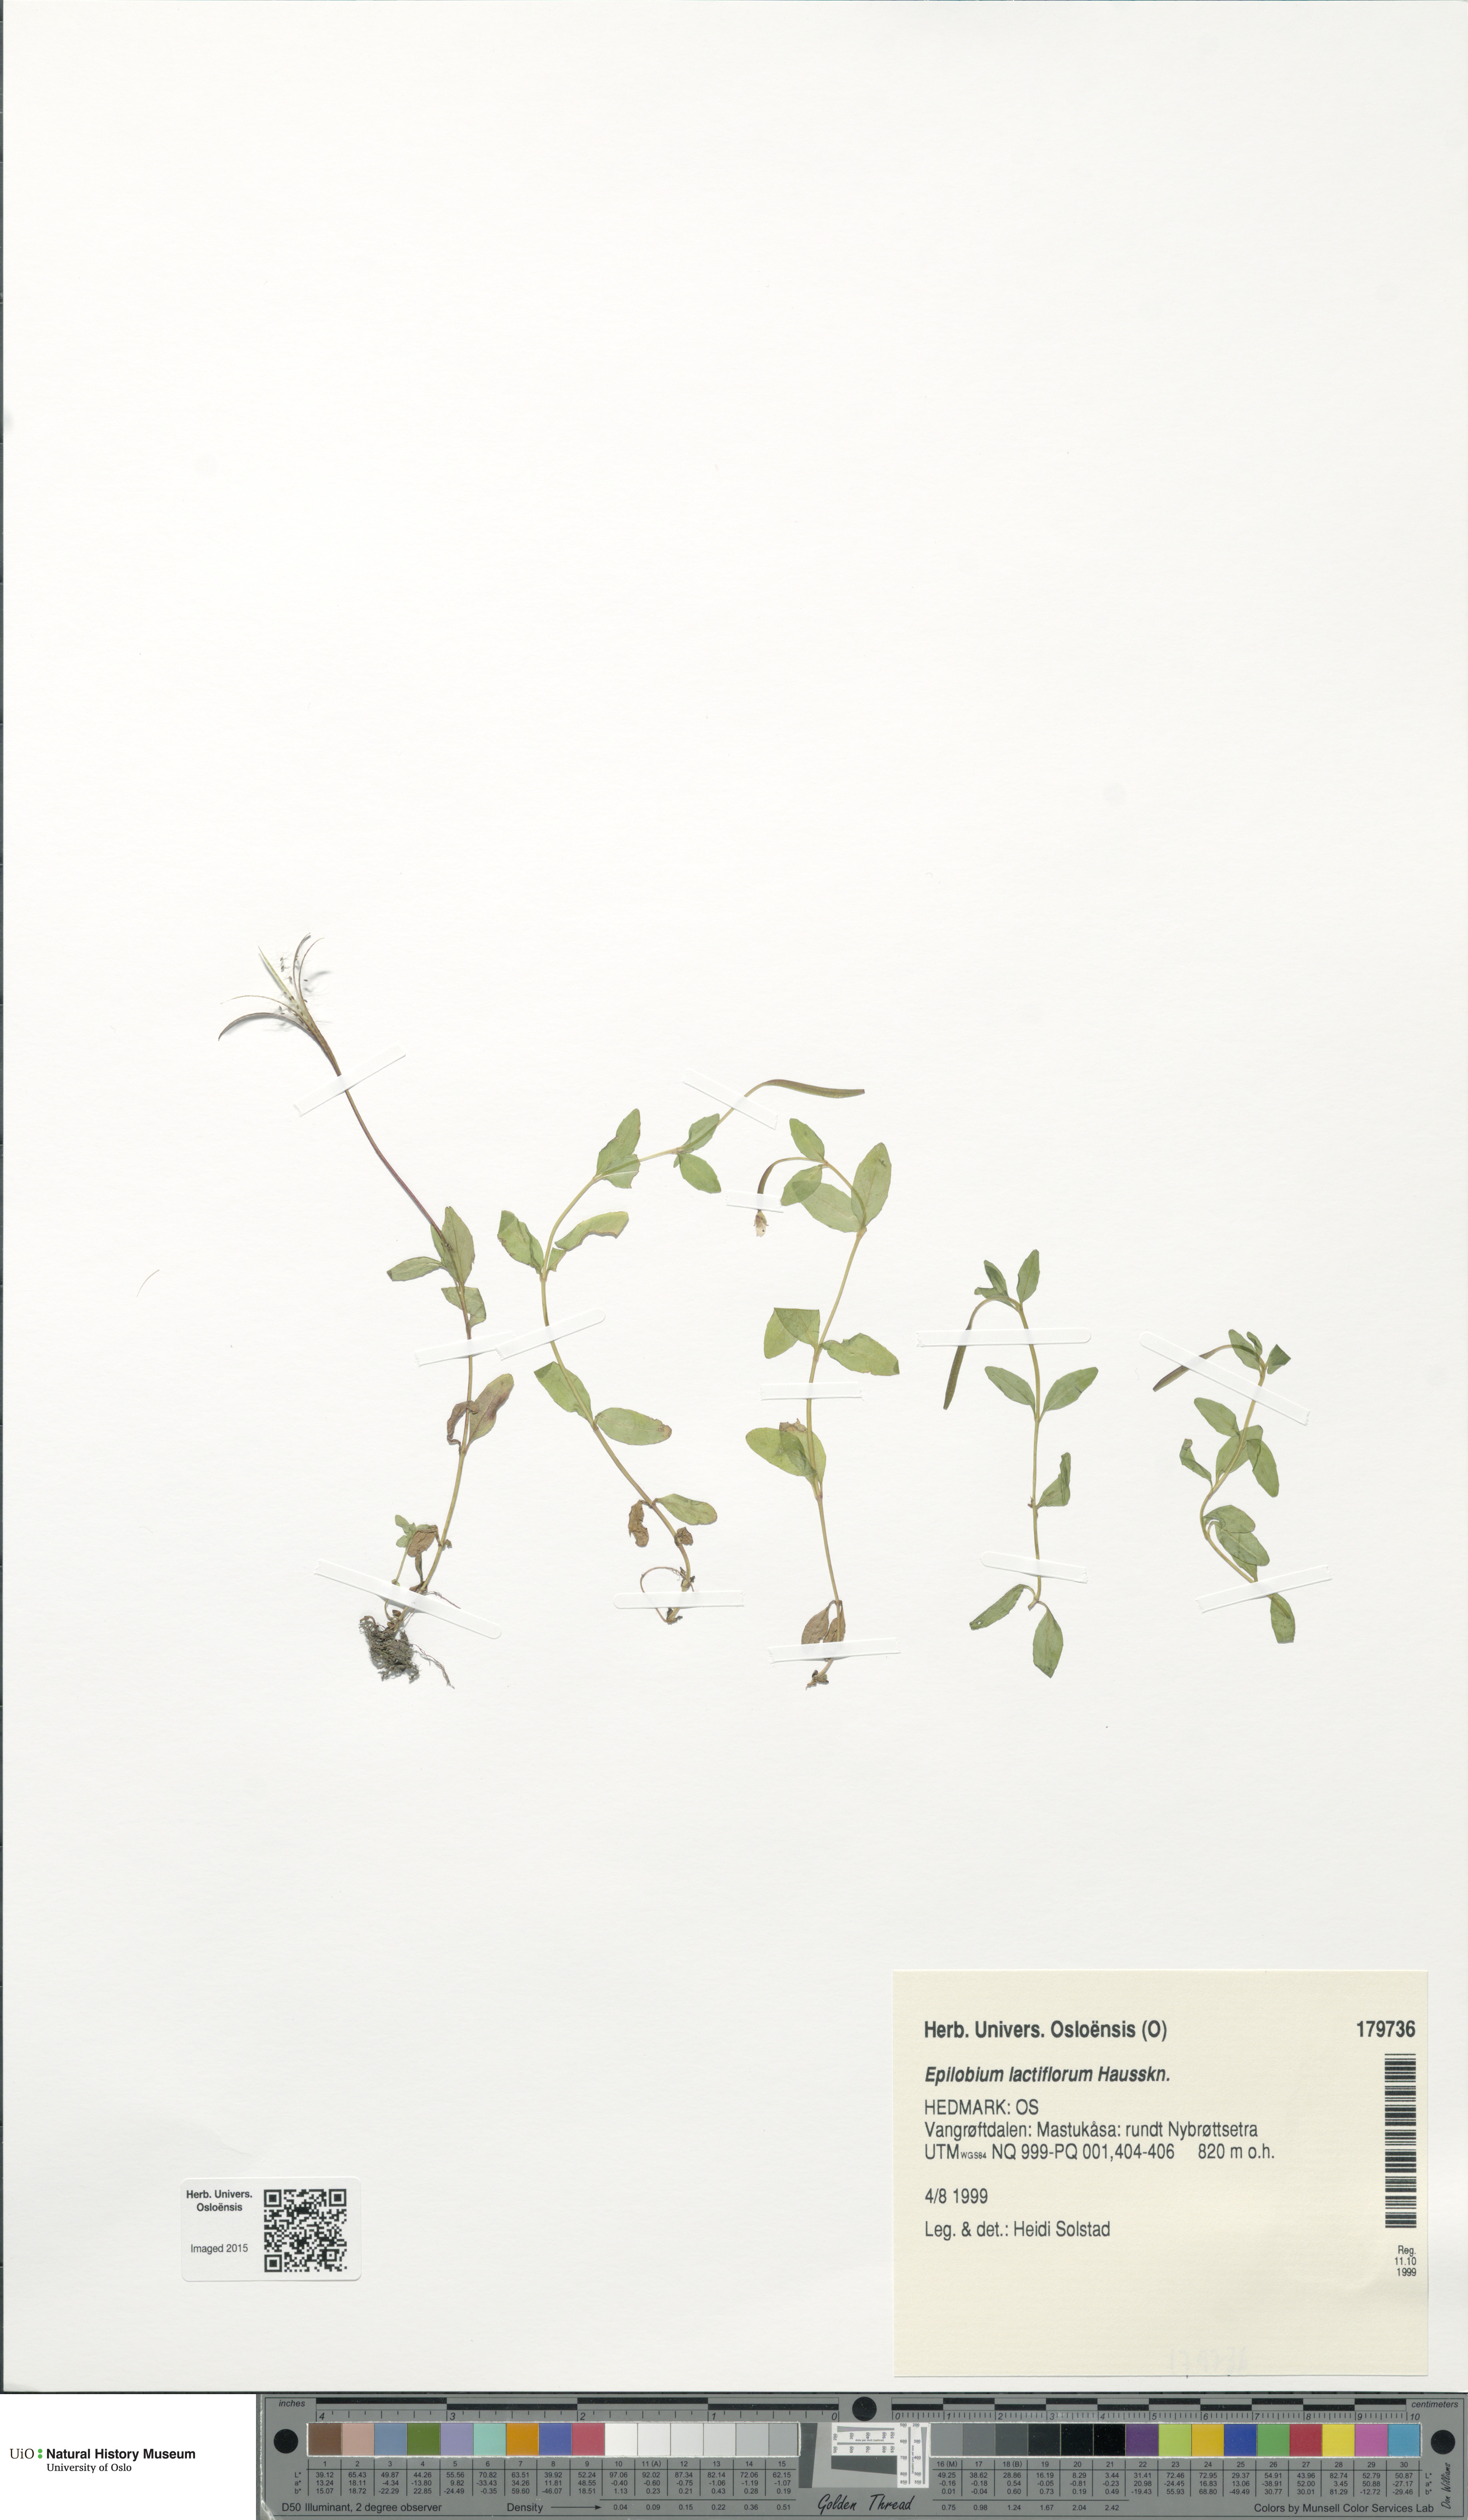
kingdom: Plantae
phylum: Tracheophyta
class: Magnoliopsida
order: Myrtales
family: Onagraceae
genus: Epilobium
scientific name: Epilobium lactiflorum
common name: Milkflower willowherb
